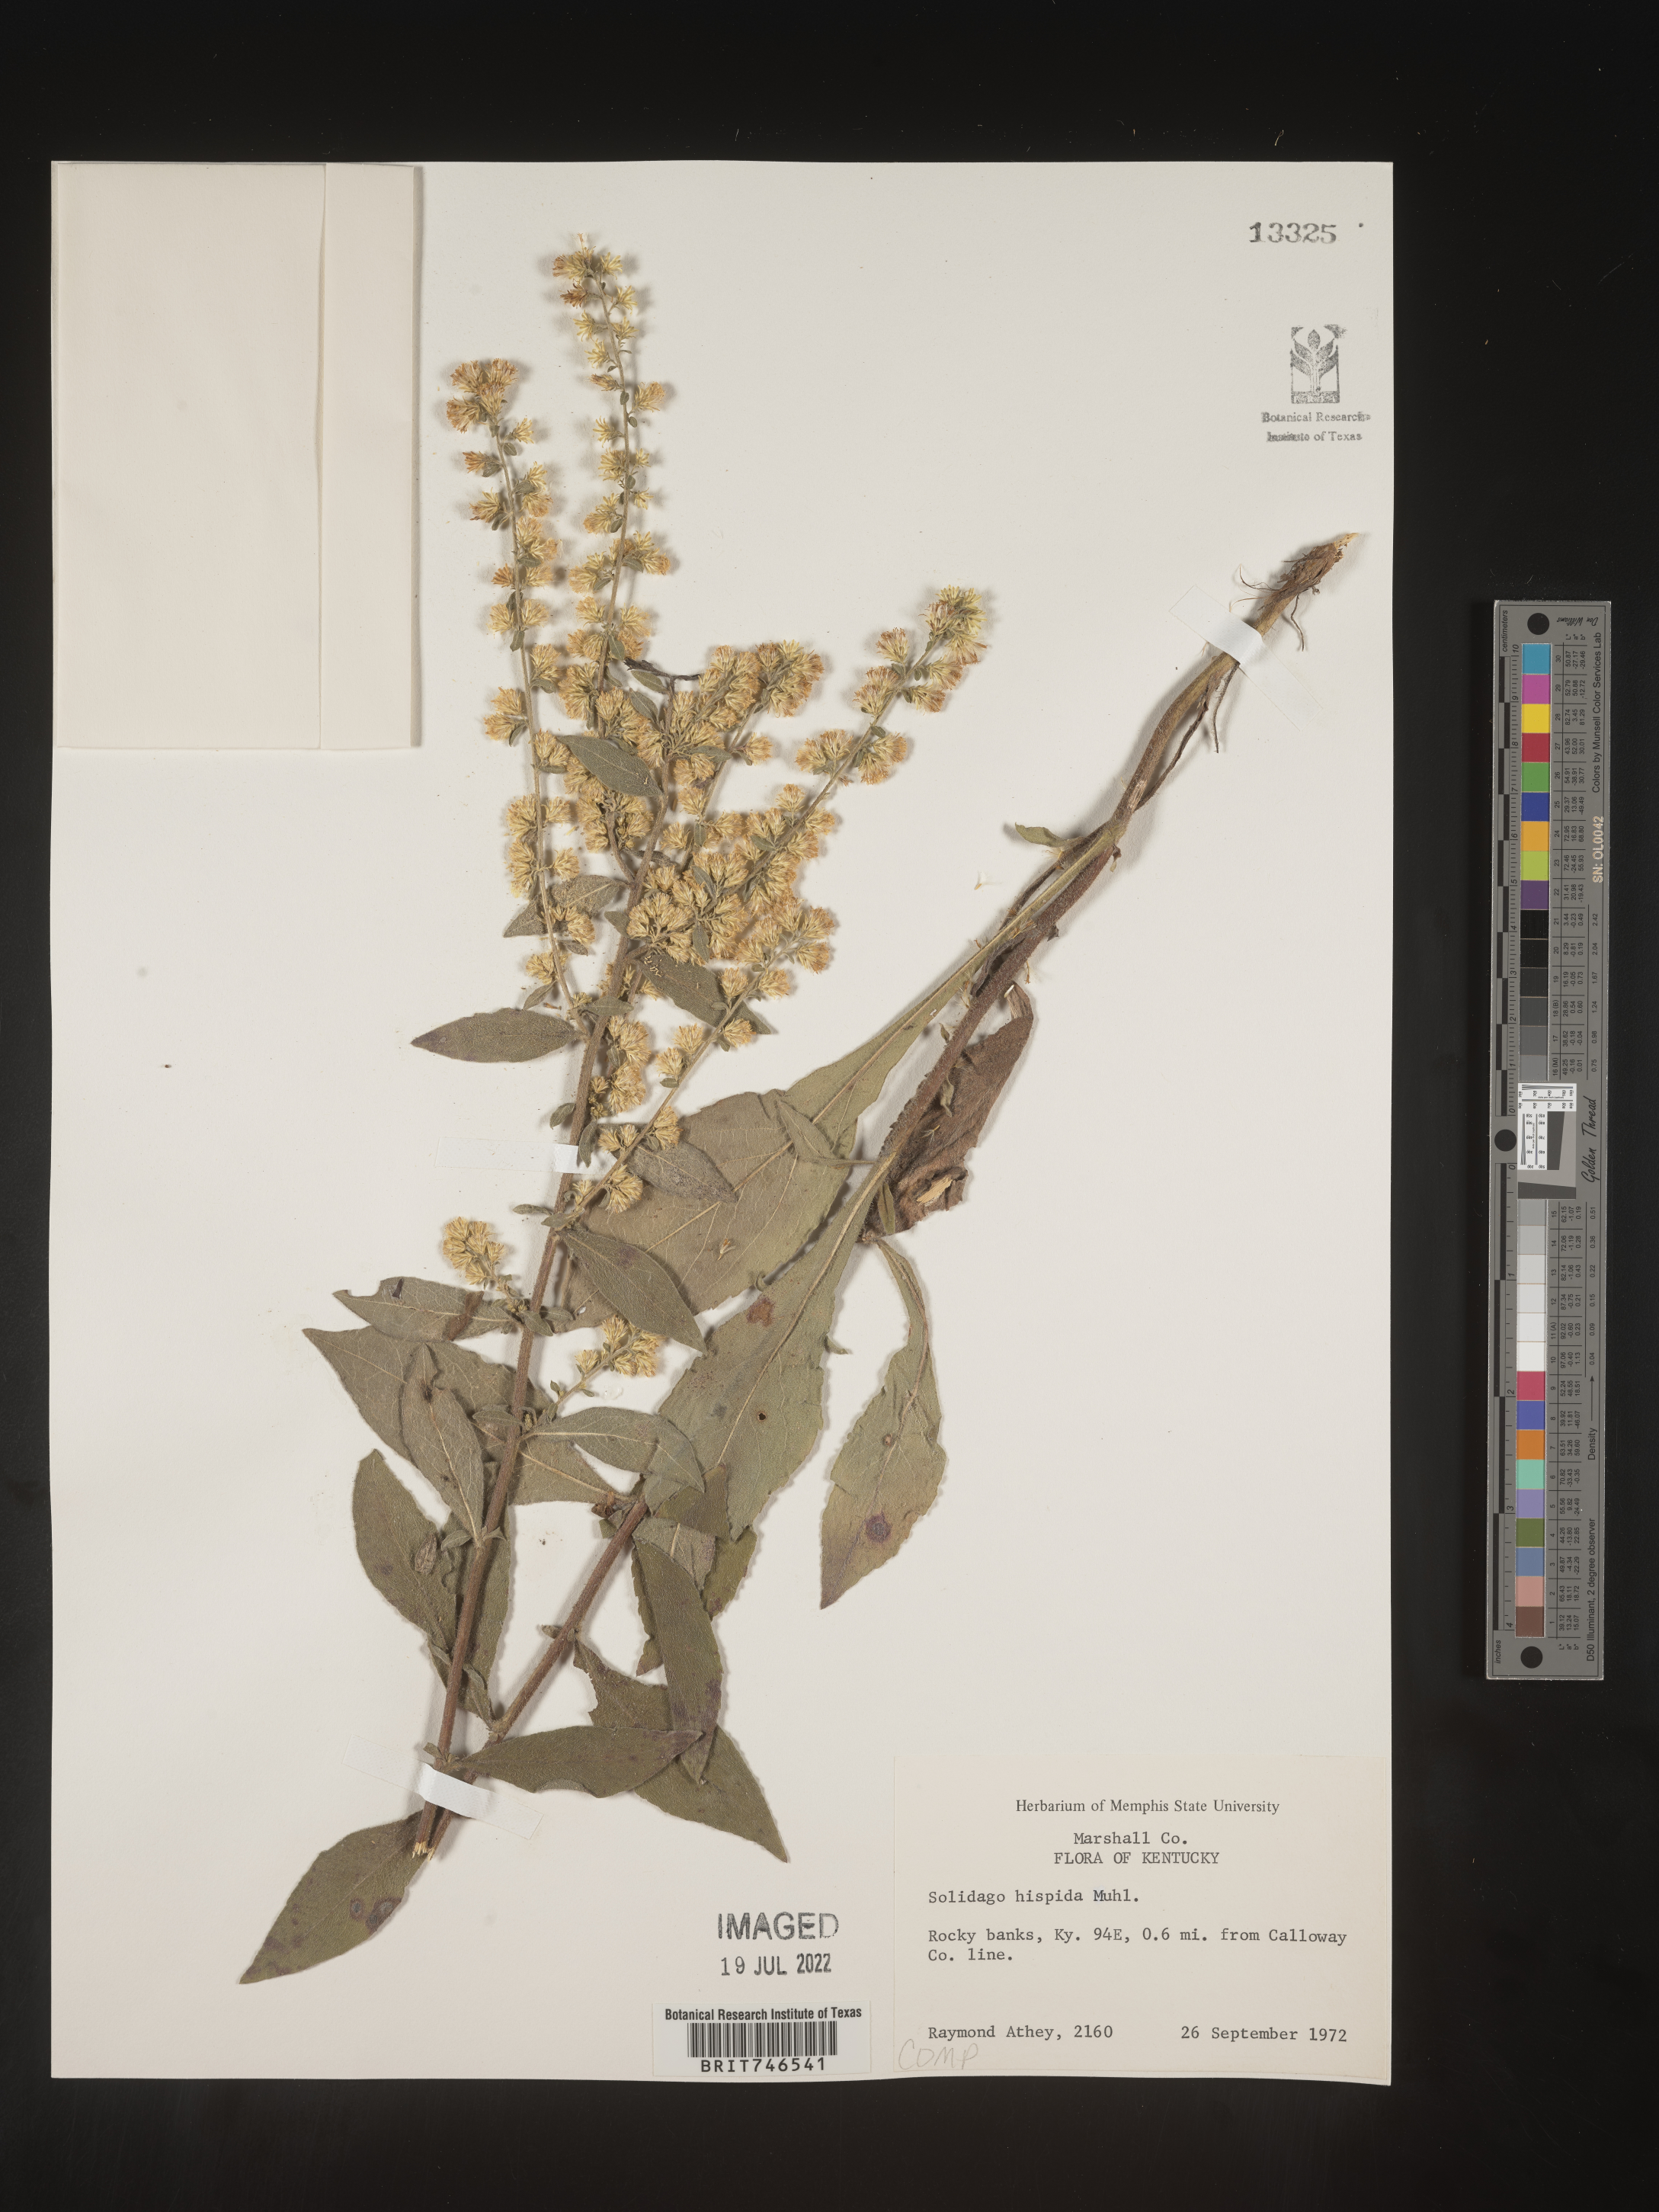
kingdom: Plantae
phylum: Tracheophyta
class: Magnoliopsida
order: Asterales
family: Asteraceae
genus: Solidago
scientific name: Solidago hispida
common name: Hairy goldenrod
